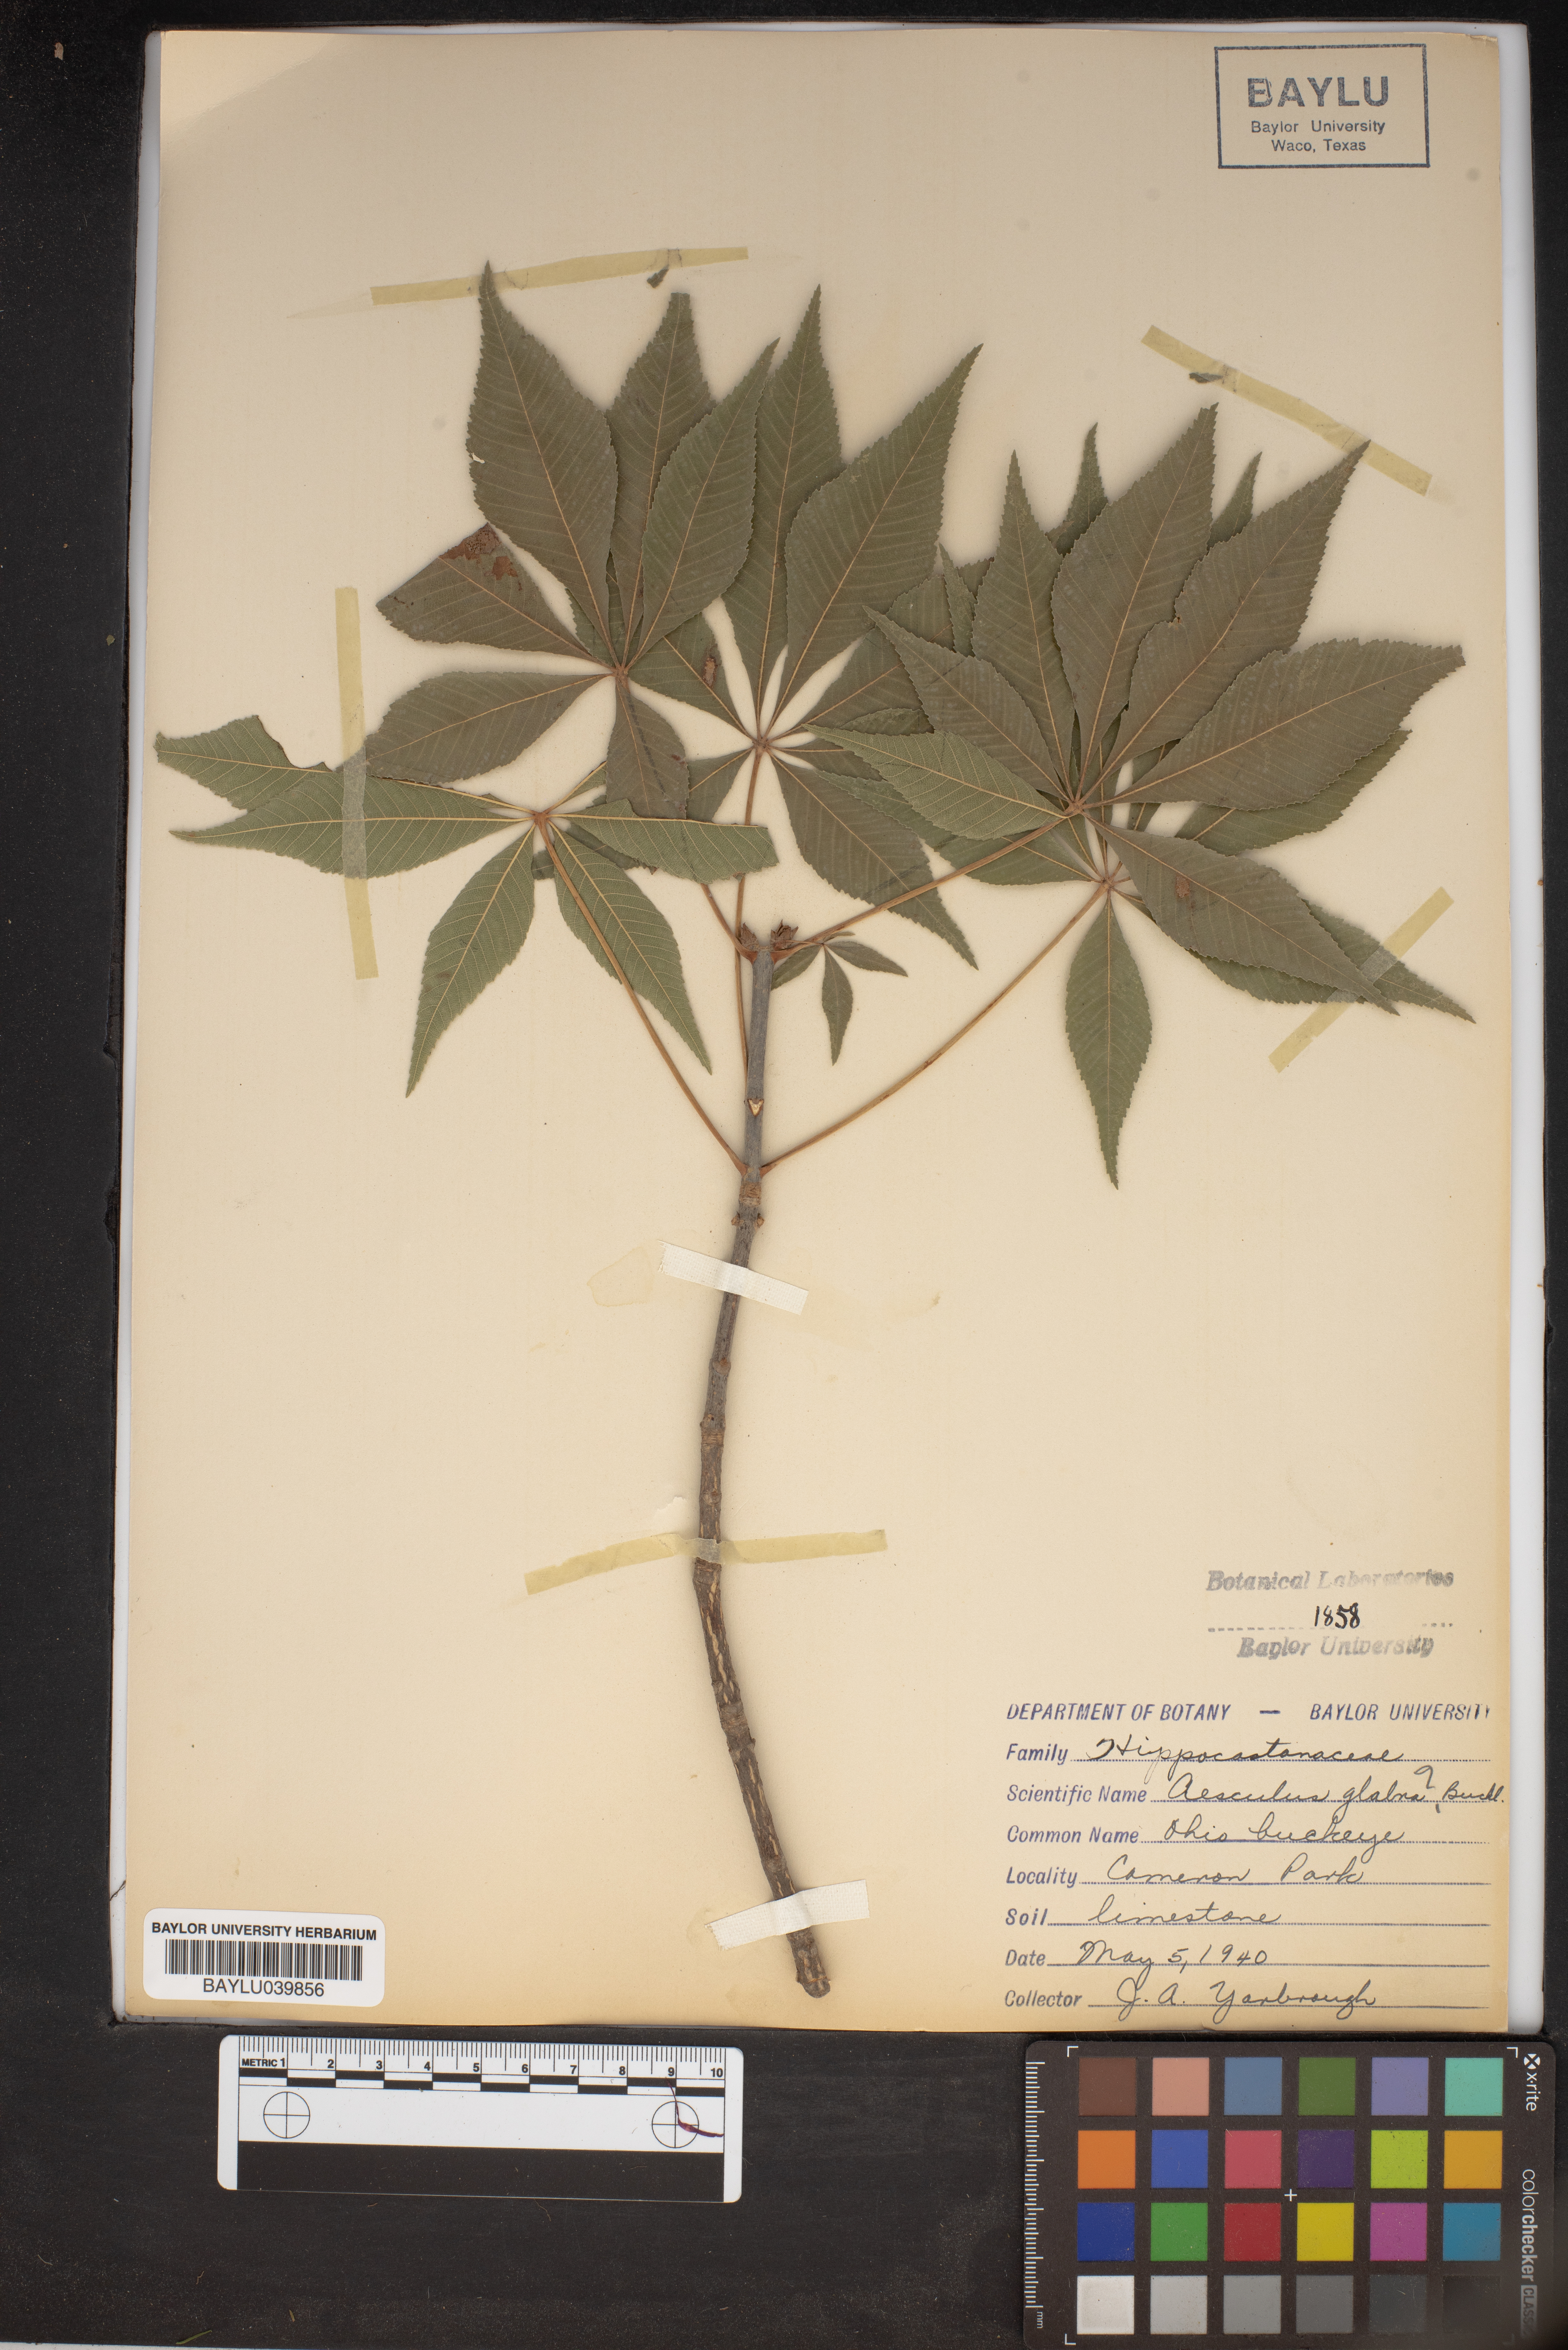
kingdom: Plantae
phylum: Tracheophyta
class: Magnoliopsida
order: Sapindales
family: Sapindaceae
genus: Aesculus
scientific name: Aesculus glabra
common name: Ohio buckeye
